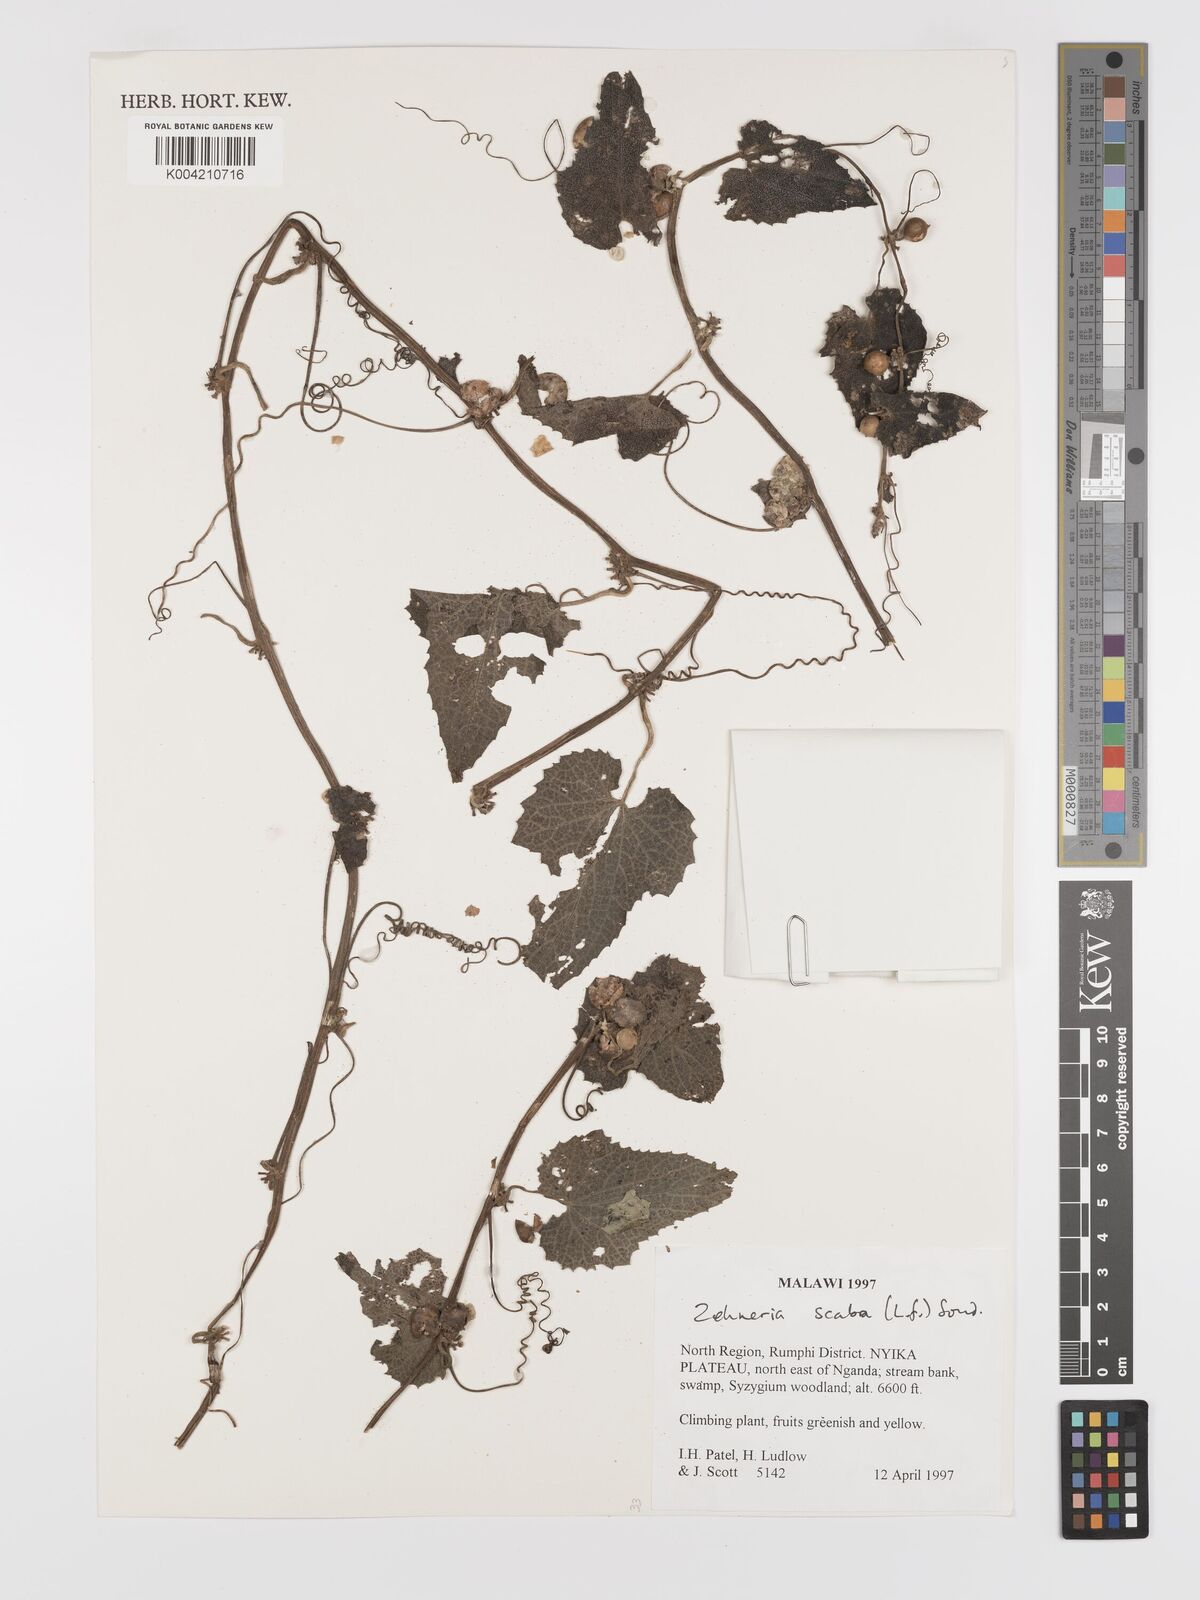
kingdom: Plantae
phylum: Tracheophyta
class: Magnoliopsida
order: Cucurbitales
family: Cucurbitaceae
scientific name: Cucurbitaceae
